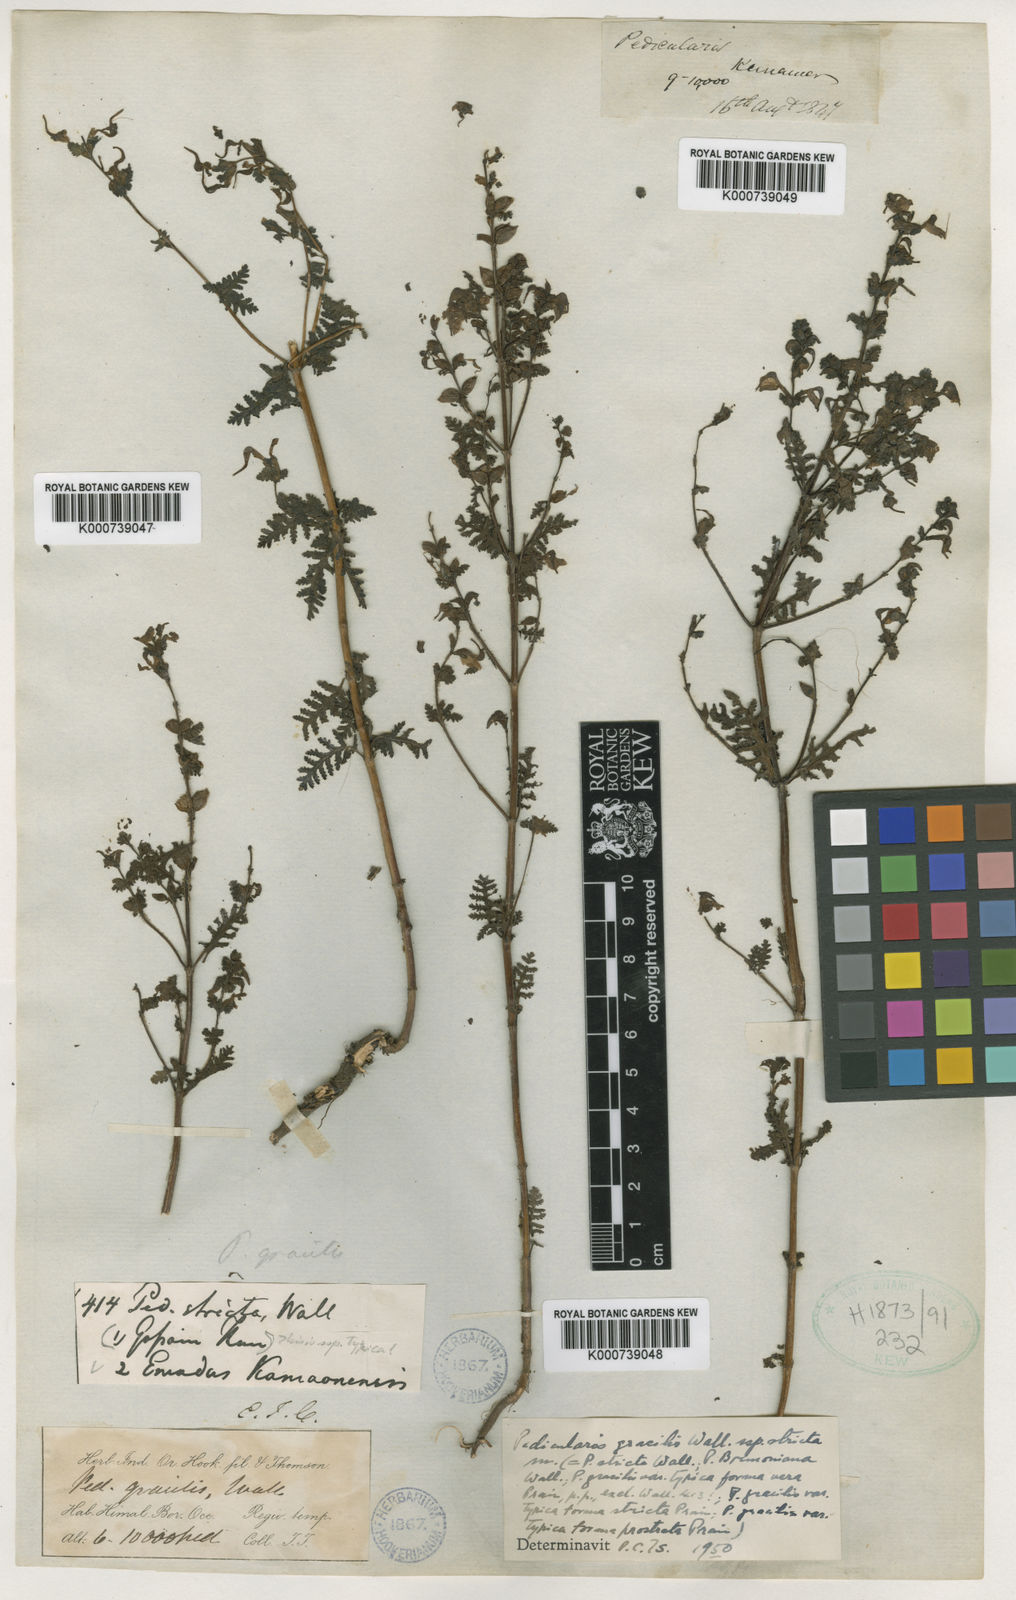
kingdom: Plantae
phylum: Tracheophyta
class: Magnoliopsida
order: Lamiales
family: Orobanchaceae
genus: Pedicularis
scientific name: Pedicularis
